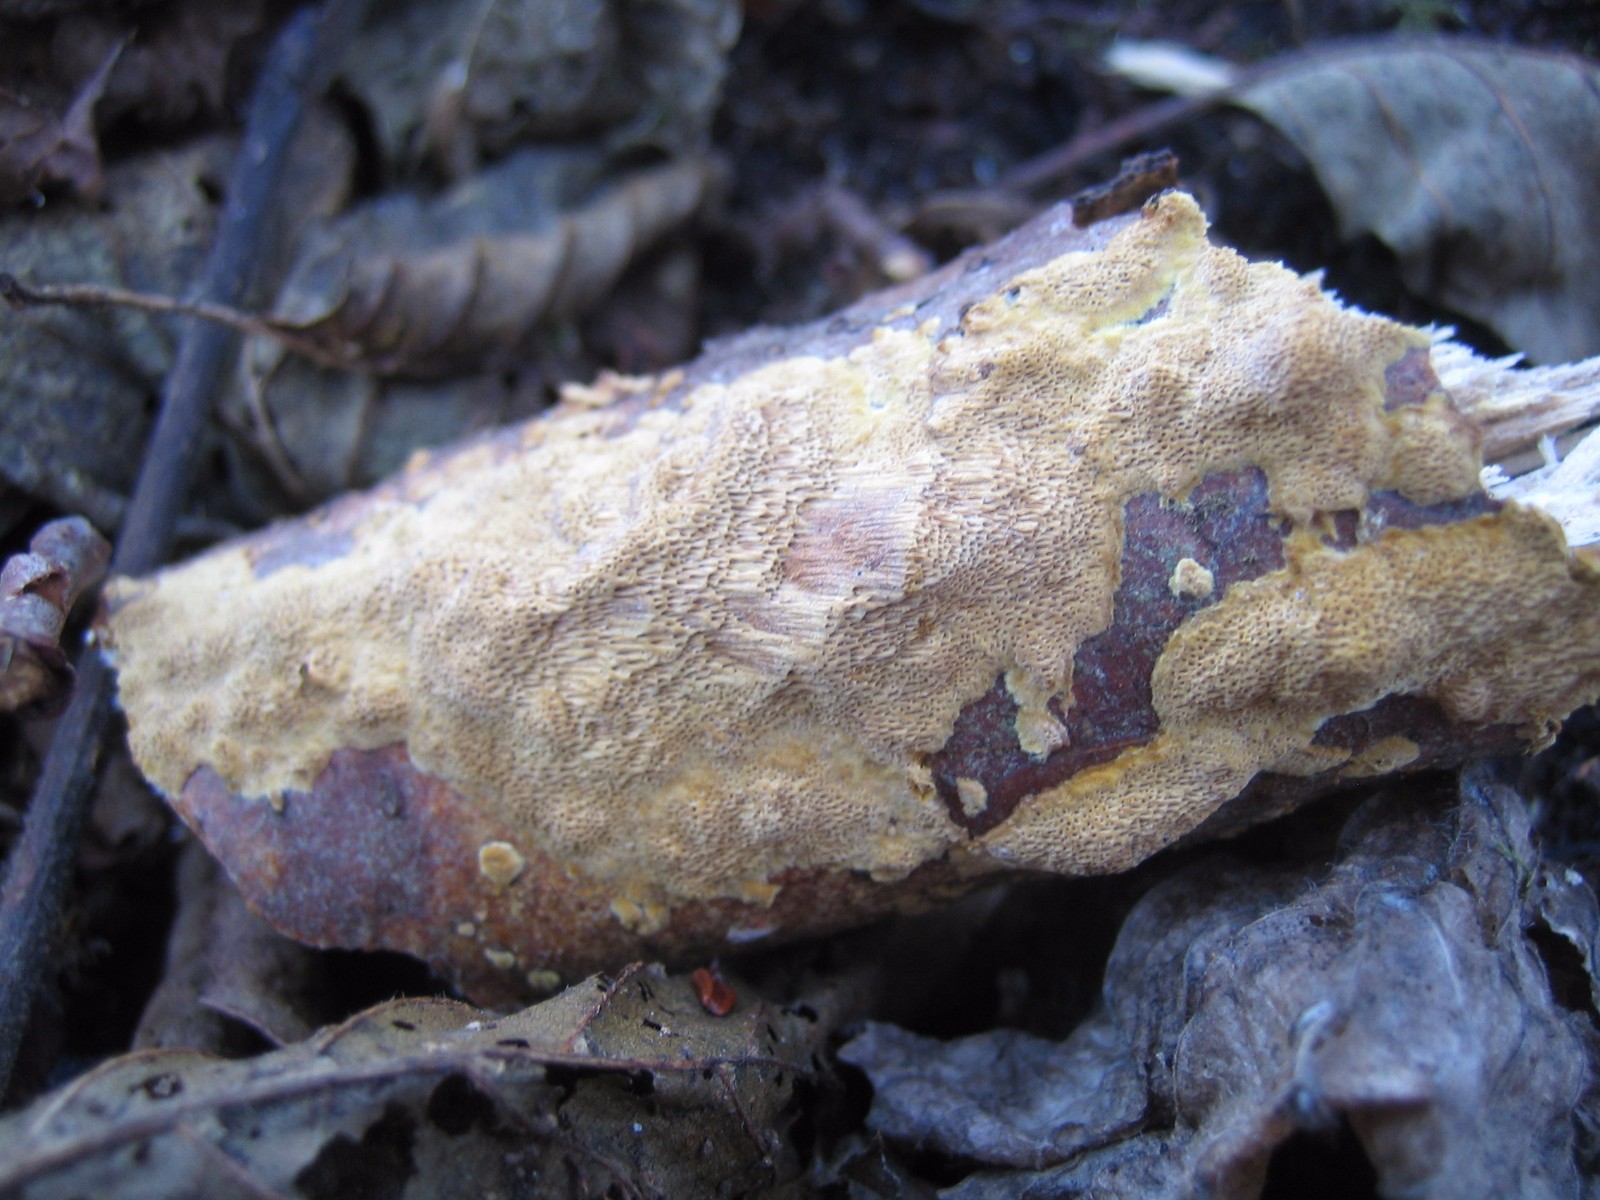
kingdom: Fungi
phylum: Basidiomycota
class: Agaricomycetes
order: Hymenochaetales
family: Hymenochaetaceae
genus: Fuscoporia
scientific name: Fuscoporia ferrea
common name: skorpe-ildporesvamp
